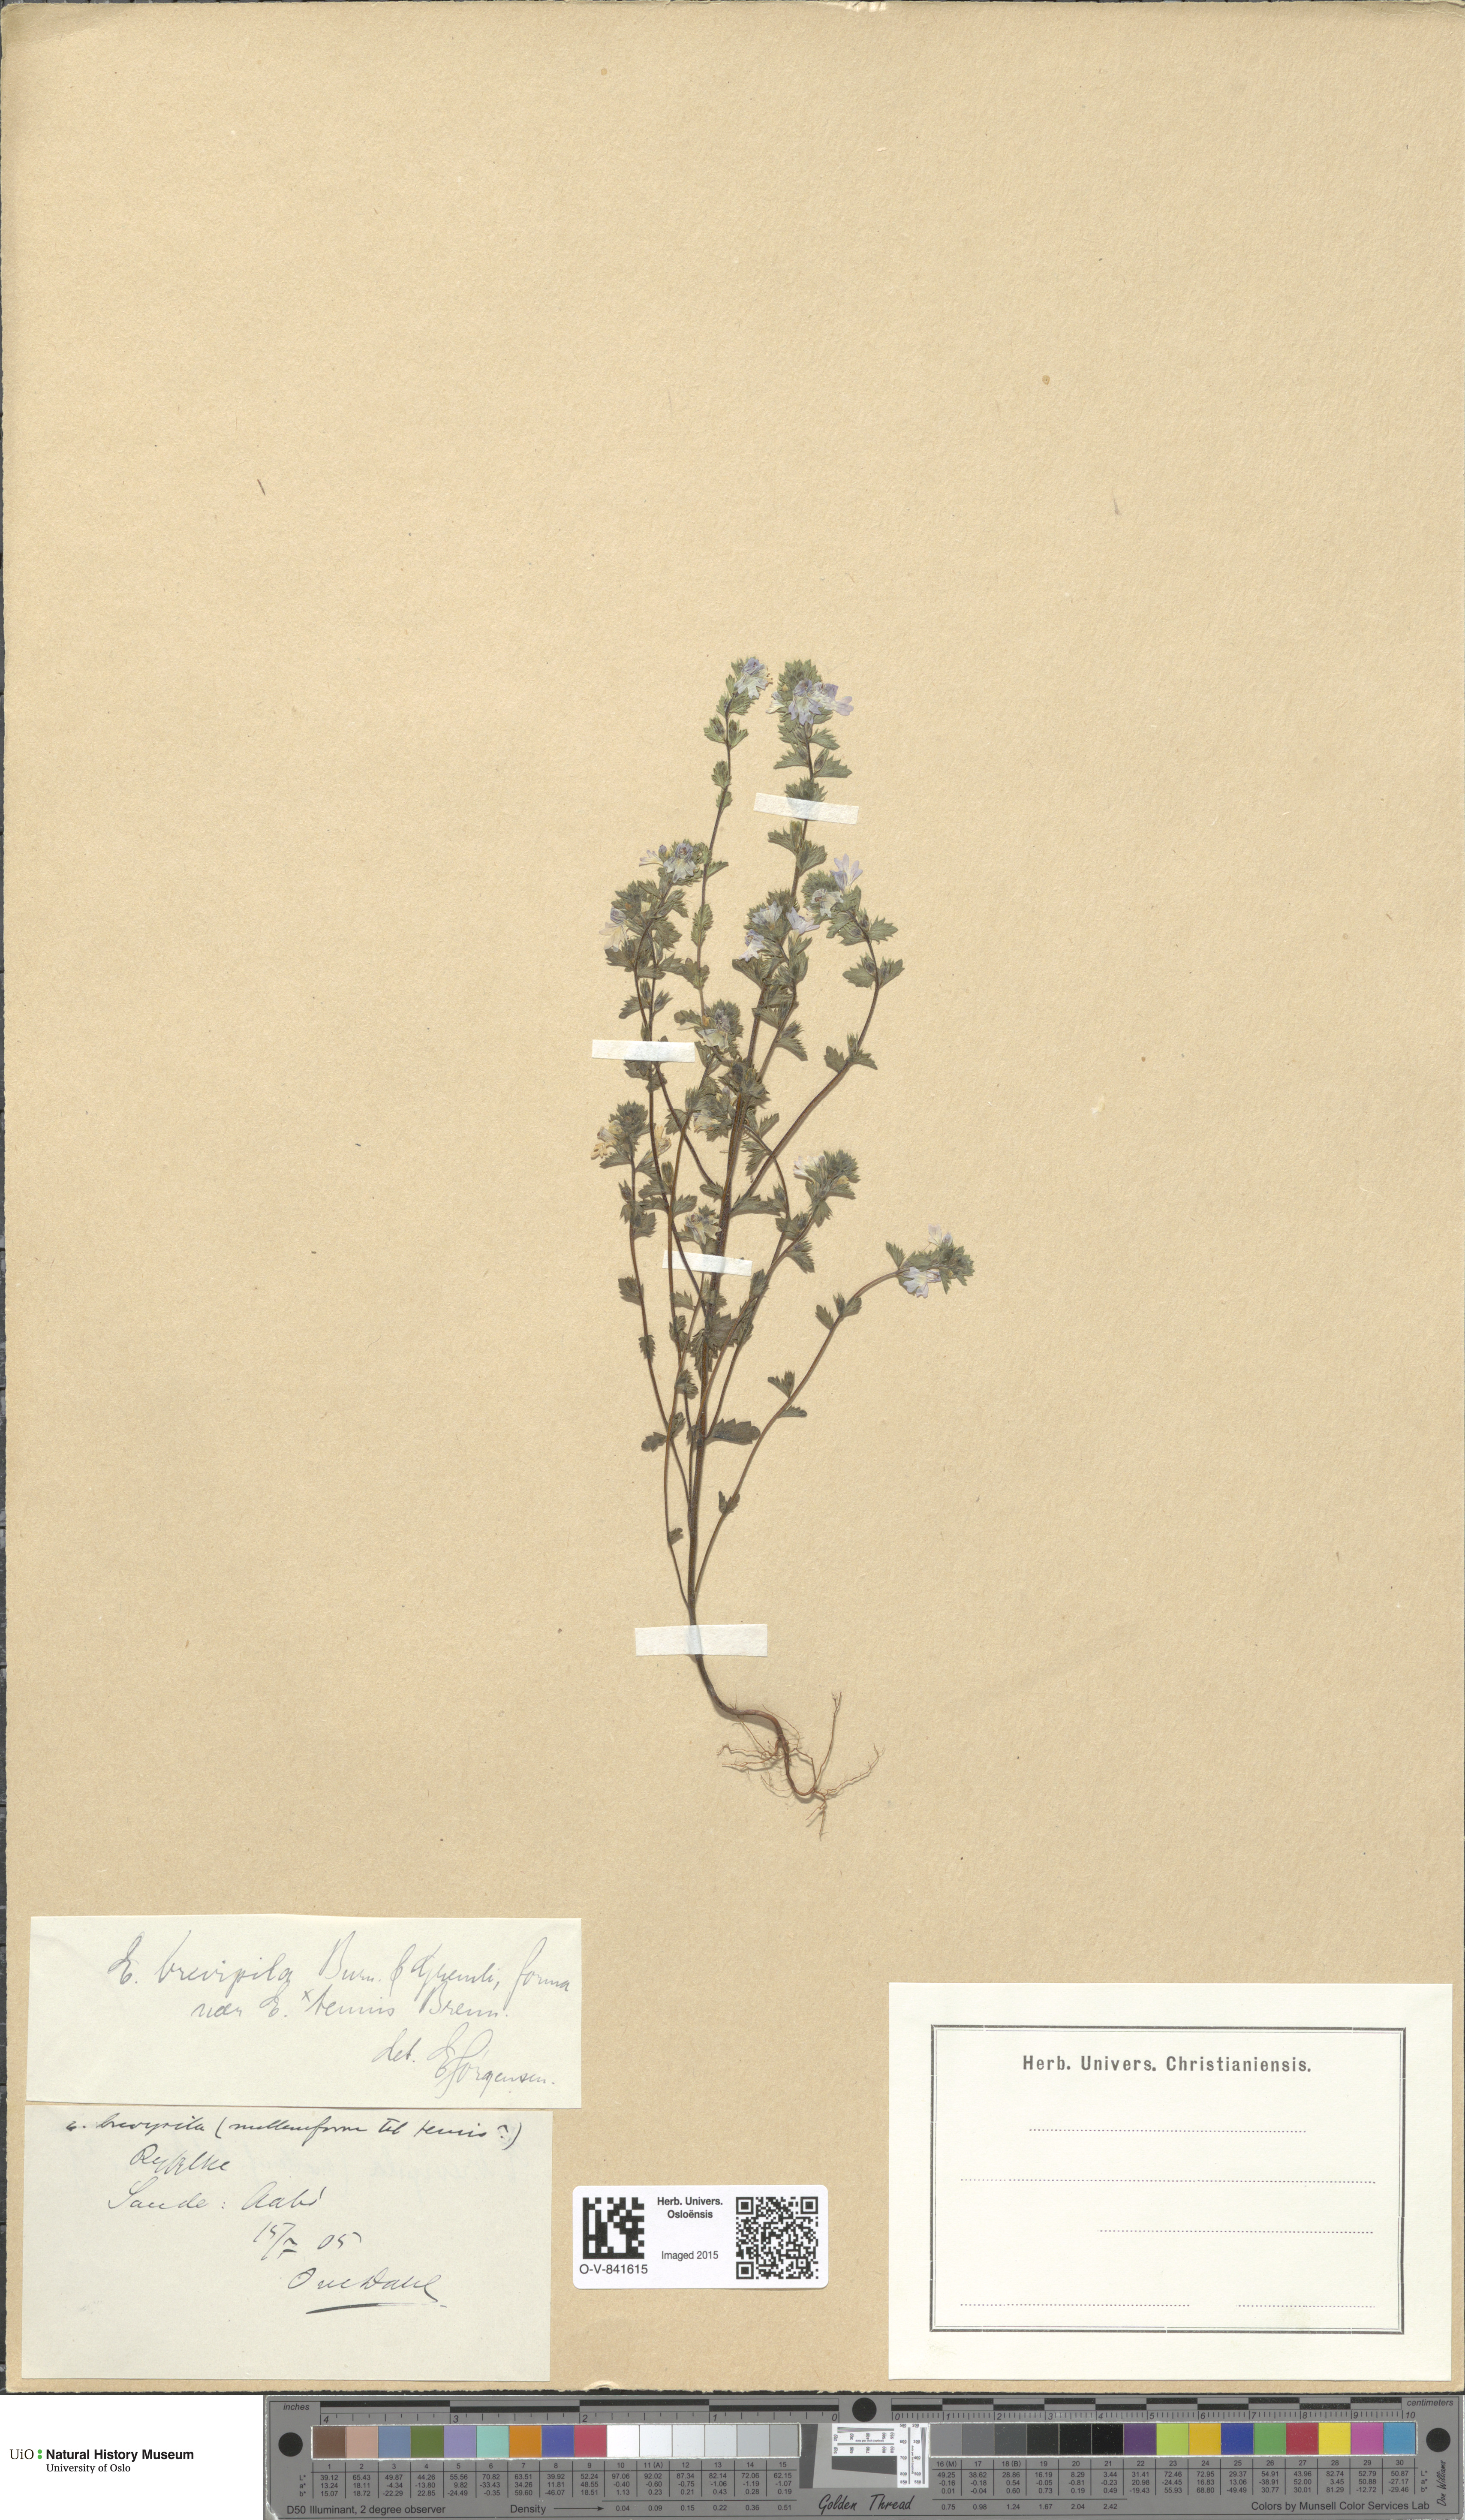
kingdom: Plantae
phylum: Tracheophyta
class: Magnoliopsida
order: Lamiales
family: Orobanchaceae
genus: Euphrasia
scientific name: Euphrasia vernalis
